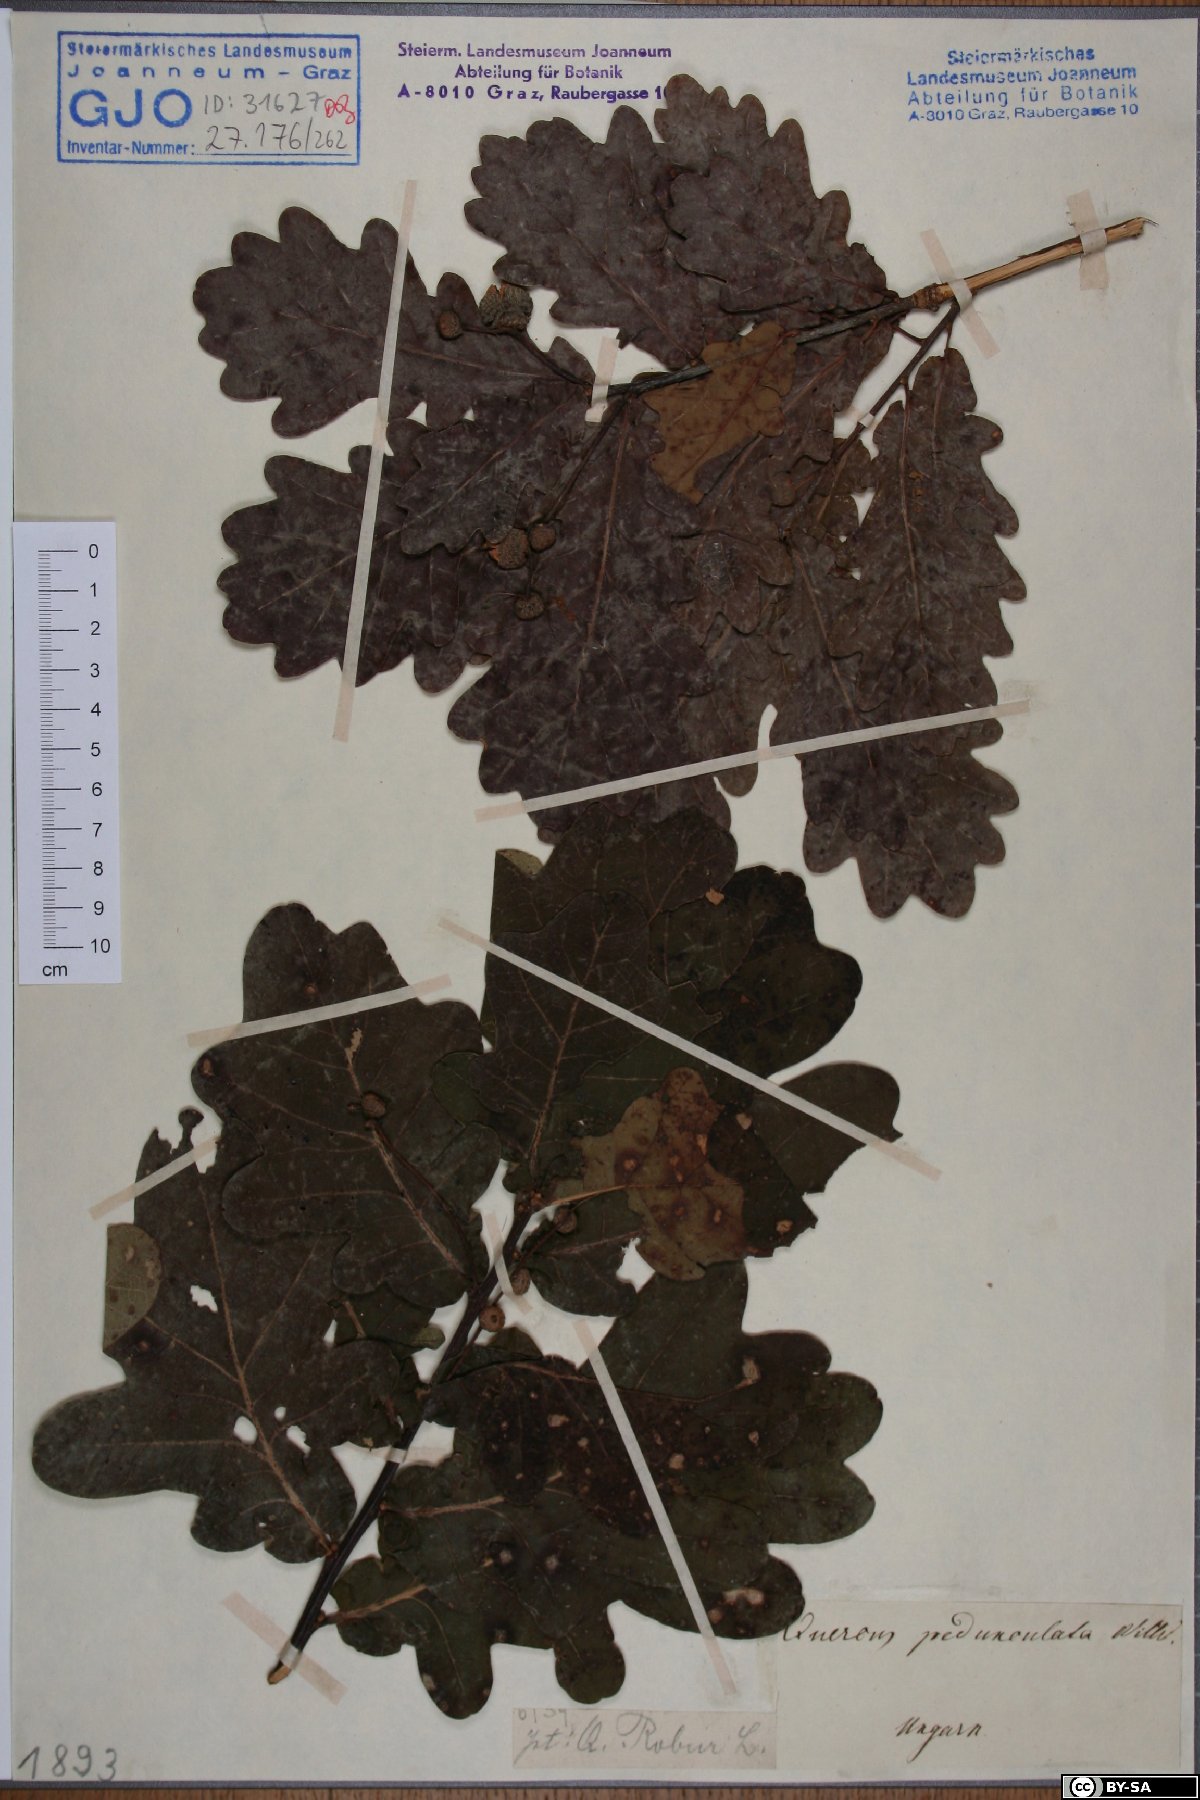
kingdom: Plantae
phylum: Tracheophyta
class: Magnoliopsida
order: Fagales
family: Fagaceae
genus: Quercus
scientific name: Quercus robur
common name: Pedunculate oak
